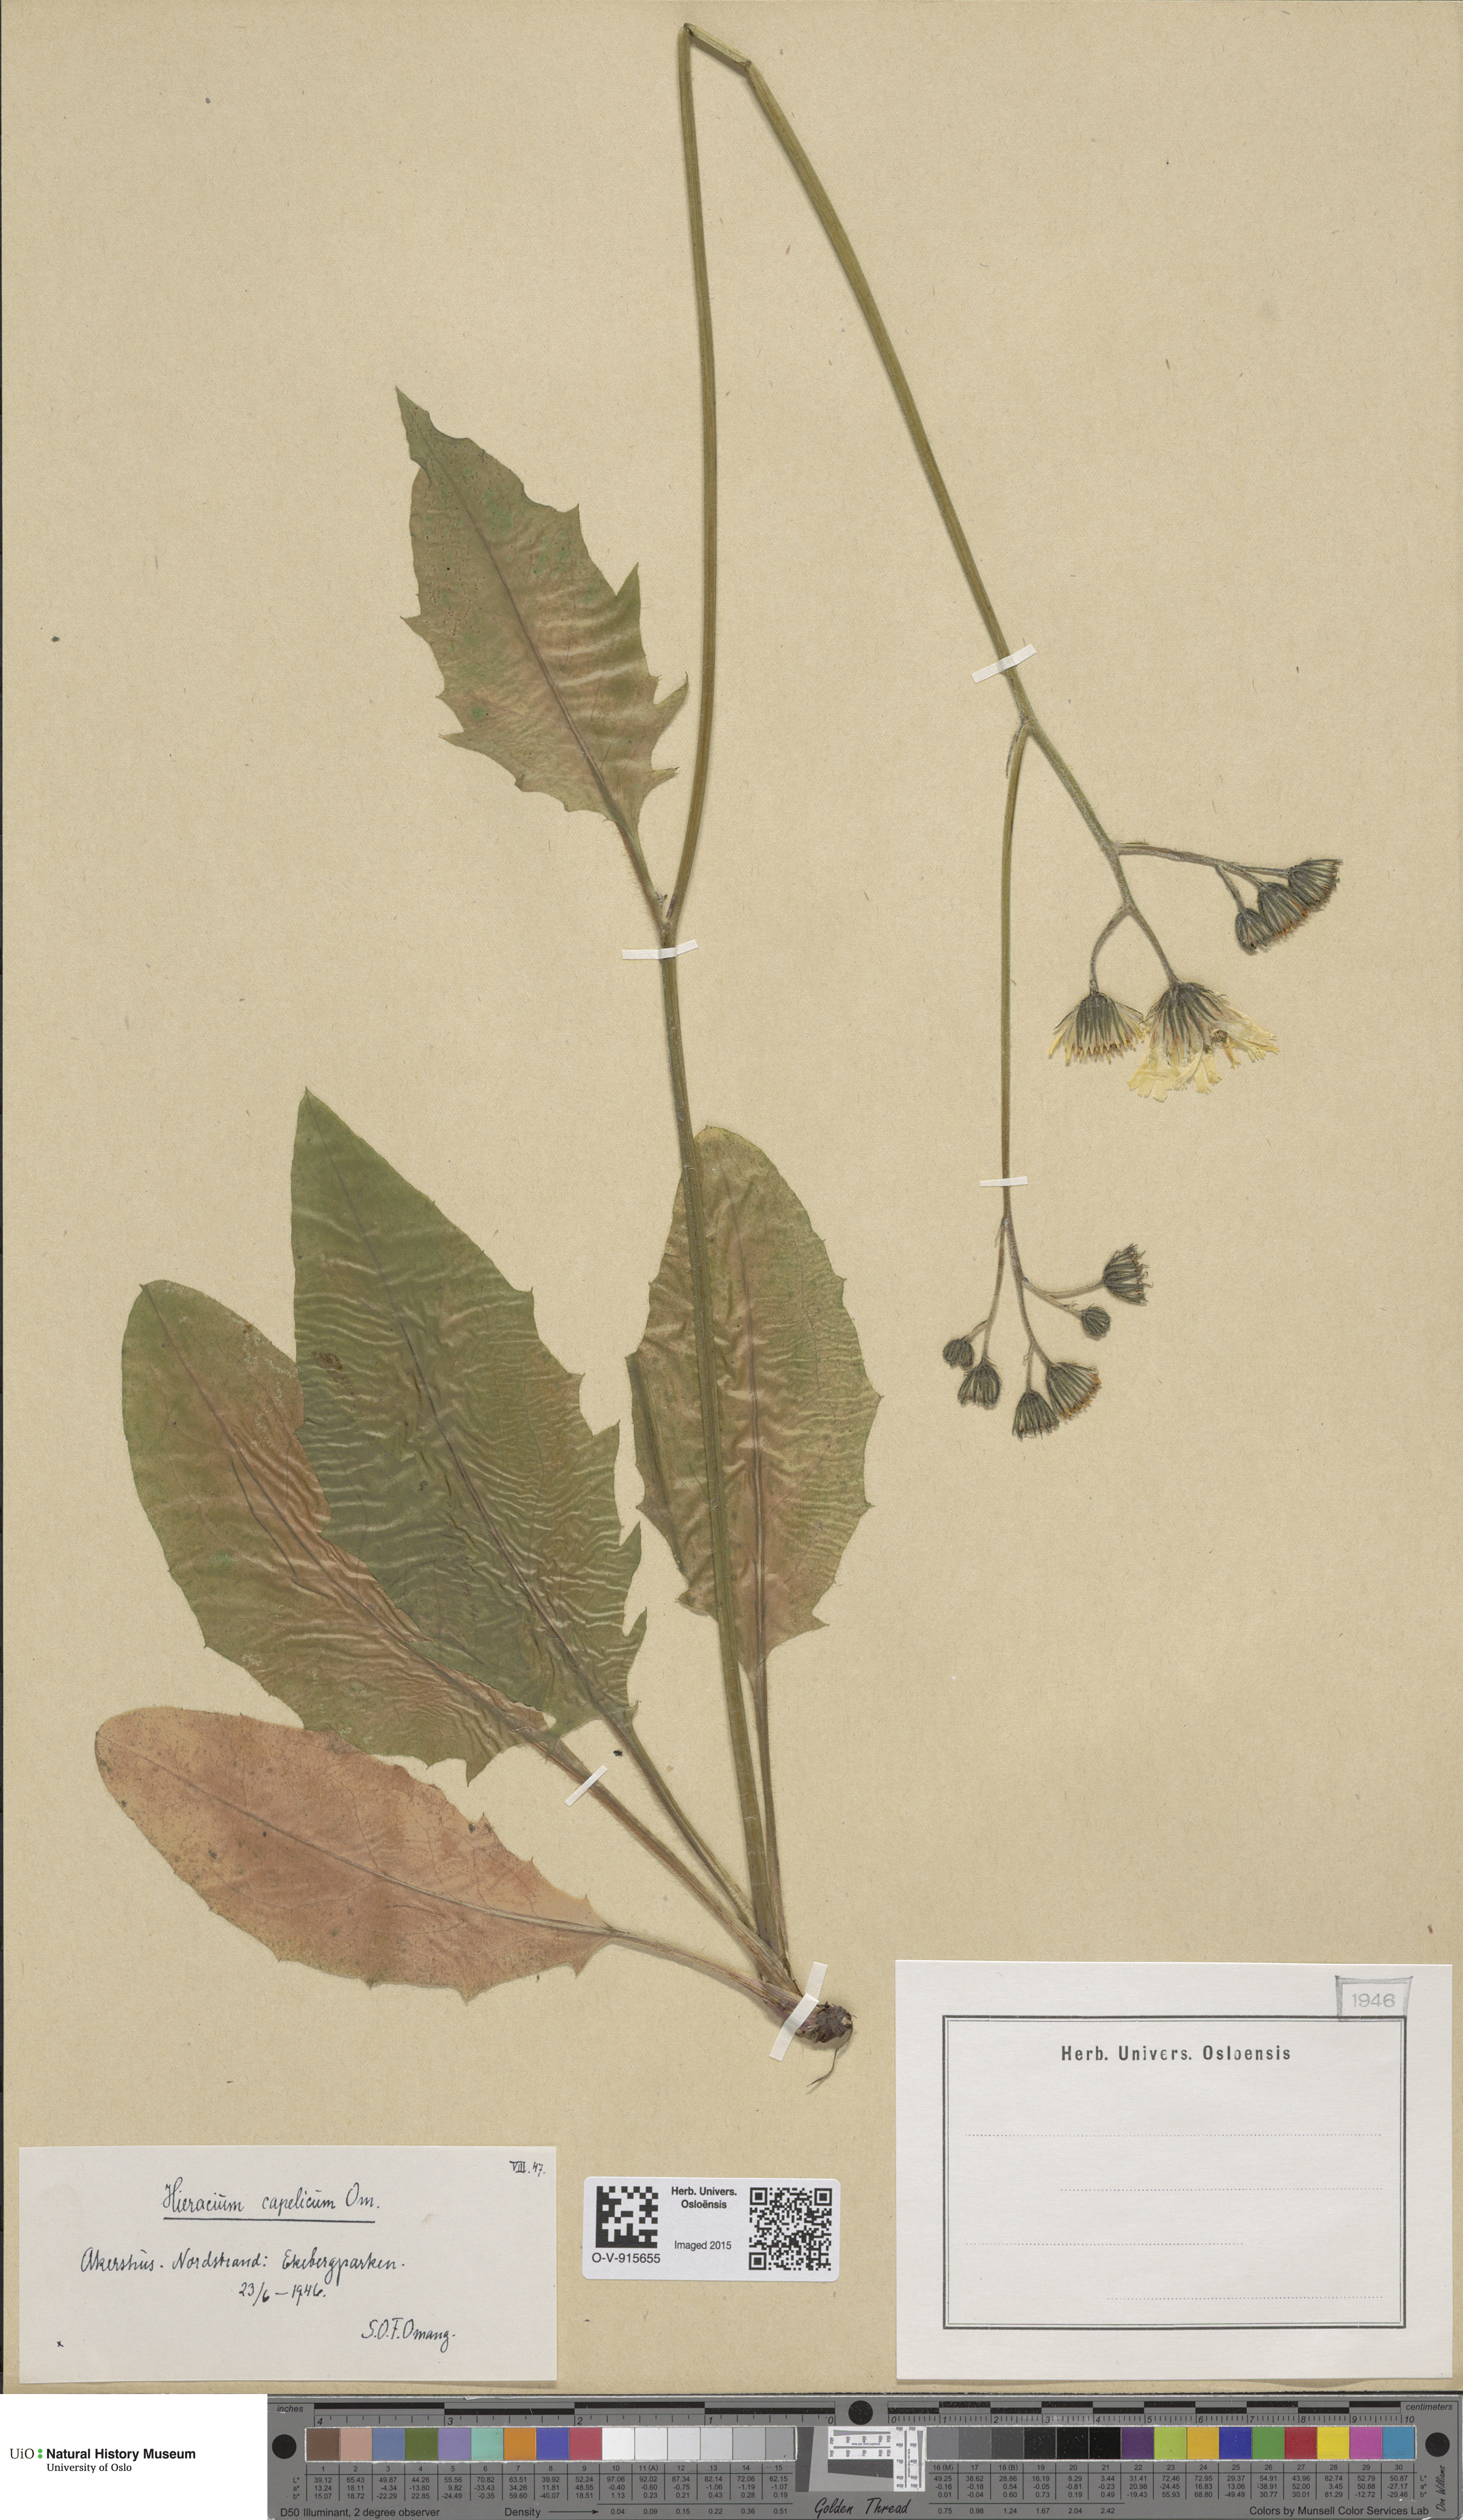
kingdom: Plantae
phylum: Tracheophyta
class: Magnoliopsida
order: Asterales
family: Asteraceae
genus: Hieracium
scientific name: Hieracium
